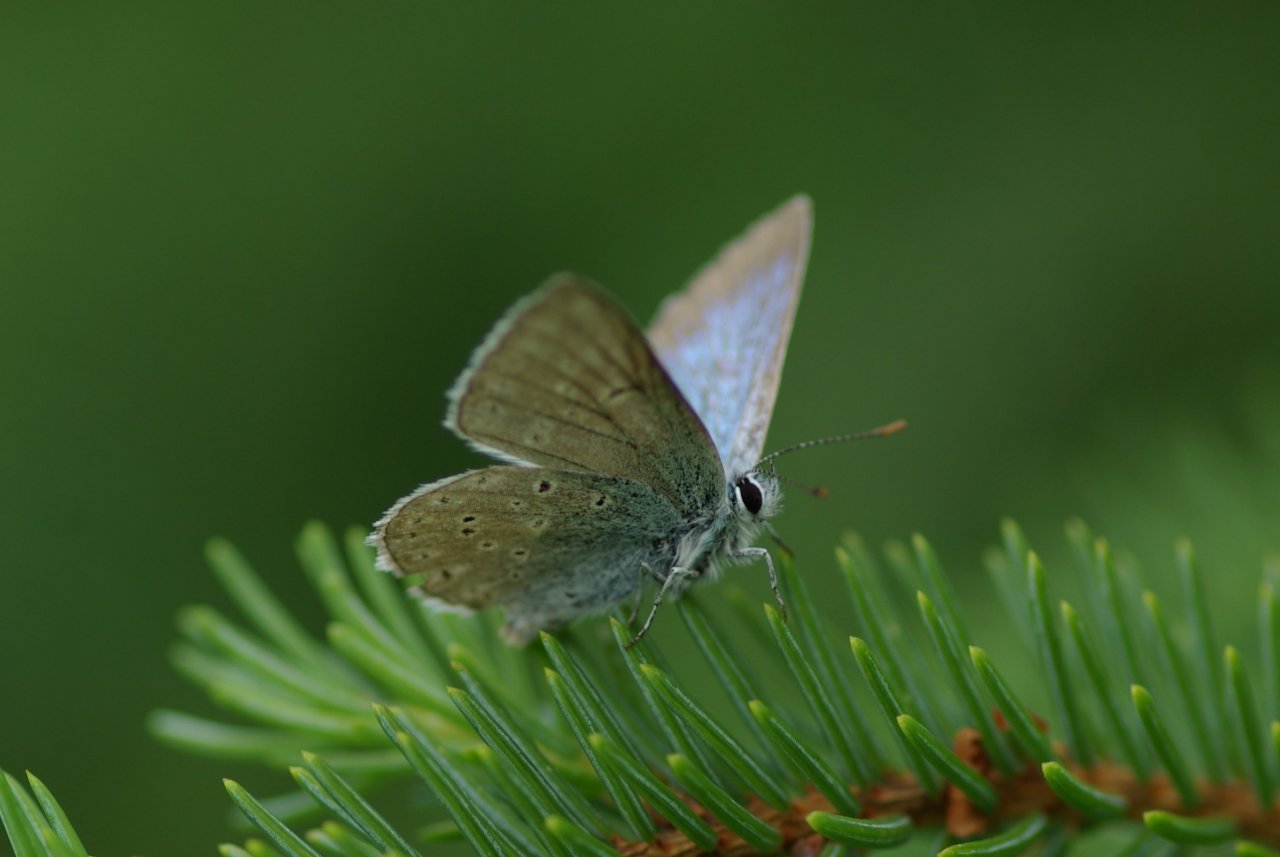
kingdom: Animalia
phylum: Arthropoda
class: Insecta
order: Lepidoptera
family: Lycaenidae
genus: Plebejus
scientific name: Plebejus saepiolus
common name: Greenish Blue
